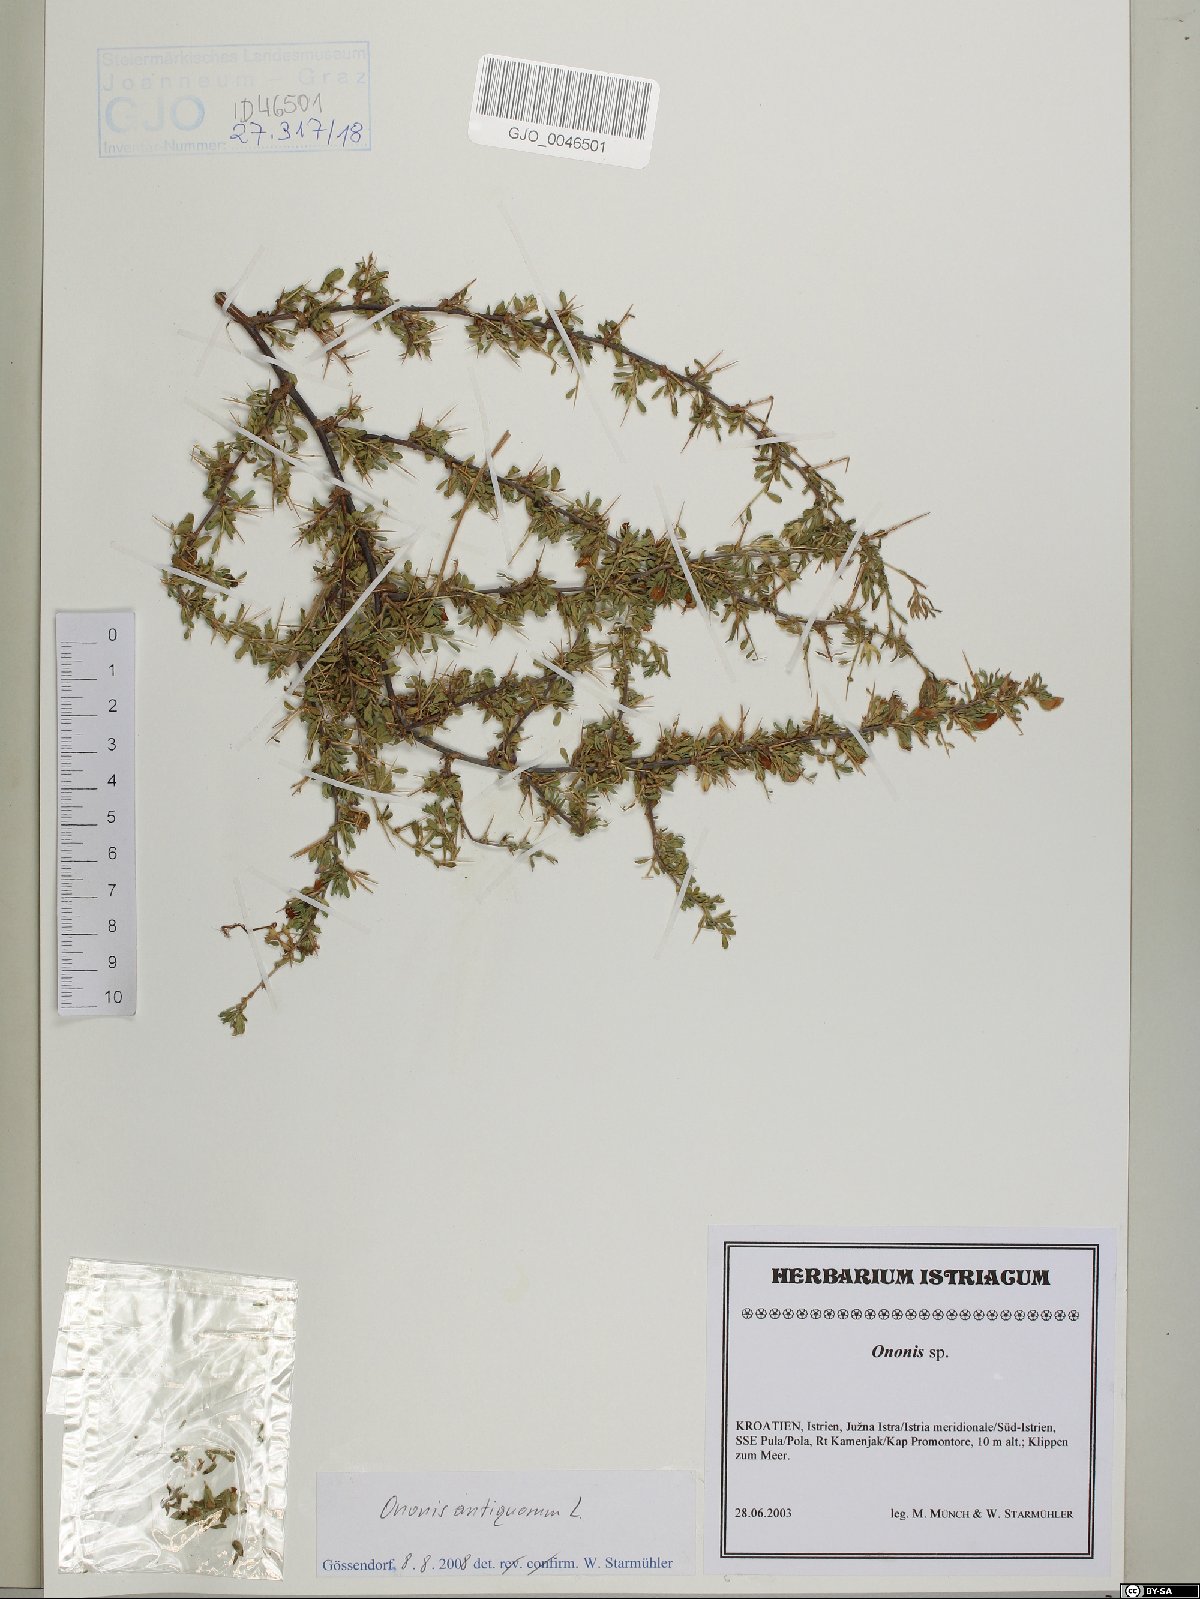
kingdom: Plantae
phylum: Tracheophyta
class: Magnoliopsida
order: Fabales
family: Fabaceae
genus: Ononis
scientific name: Ononis spinosa
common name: Spiny restharrow
